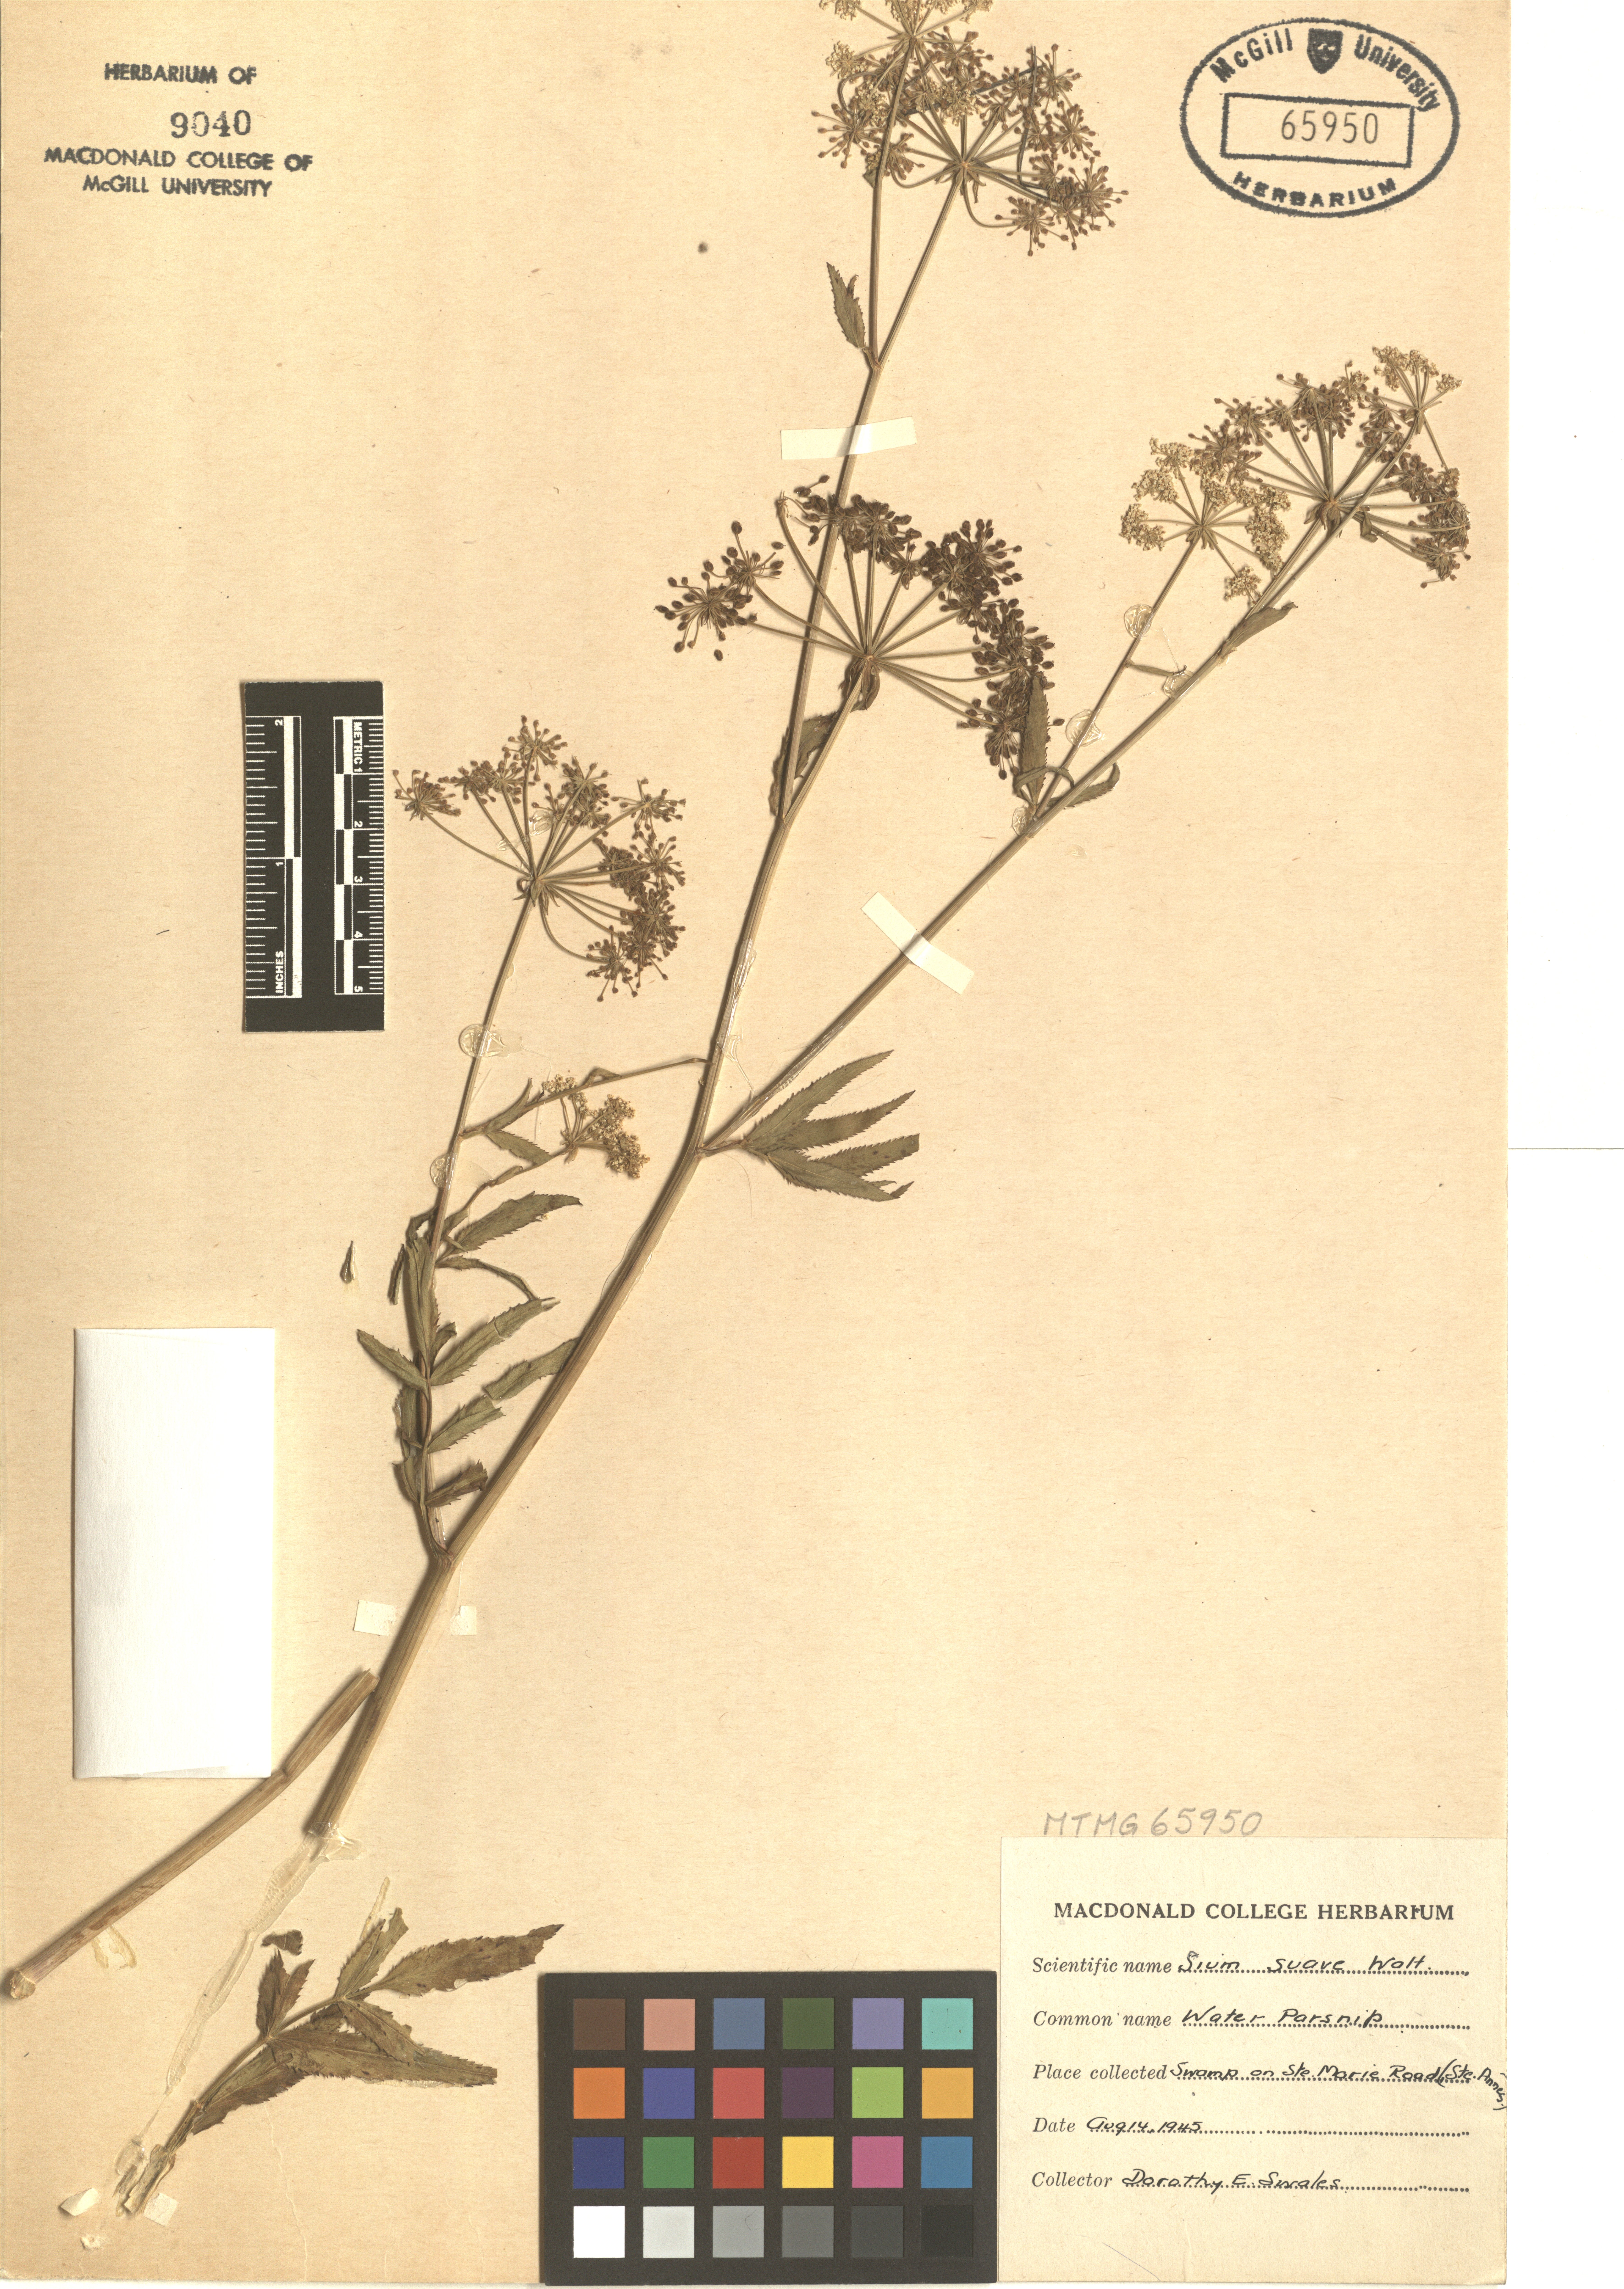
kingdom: Plantae
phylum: Tracheophyta
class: Magnoliopsida
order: Apiales
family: Apiaceae
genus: Sium
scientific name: Sium suave
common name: Hemlock water-parsnip
